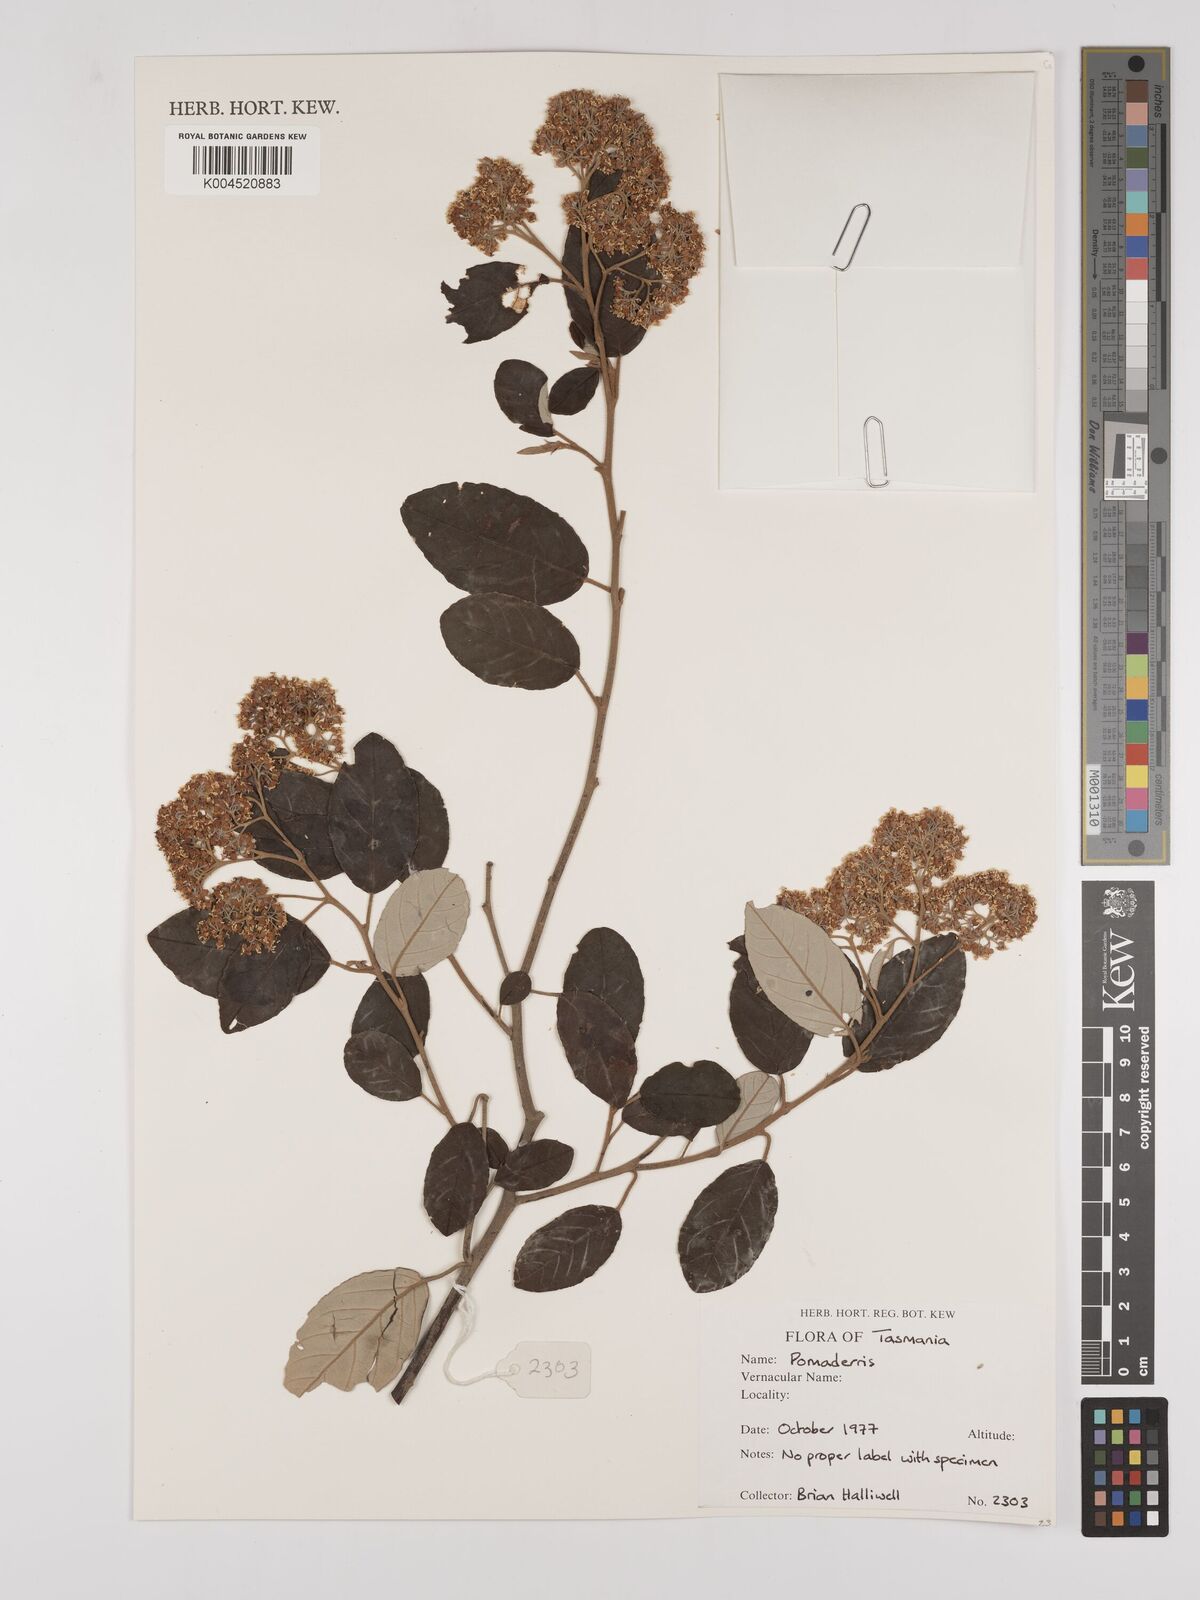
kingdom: Plantae
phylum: Tracheophyta
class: Magnoliopsida
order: Rosales
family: Rhamnaceae
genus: Pomaderris
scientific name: Pomaderris
